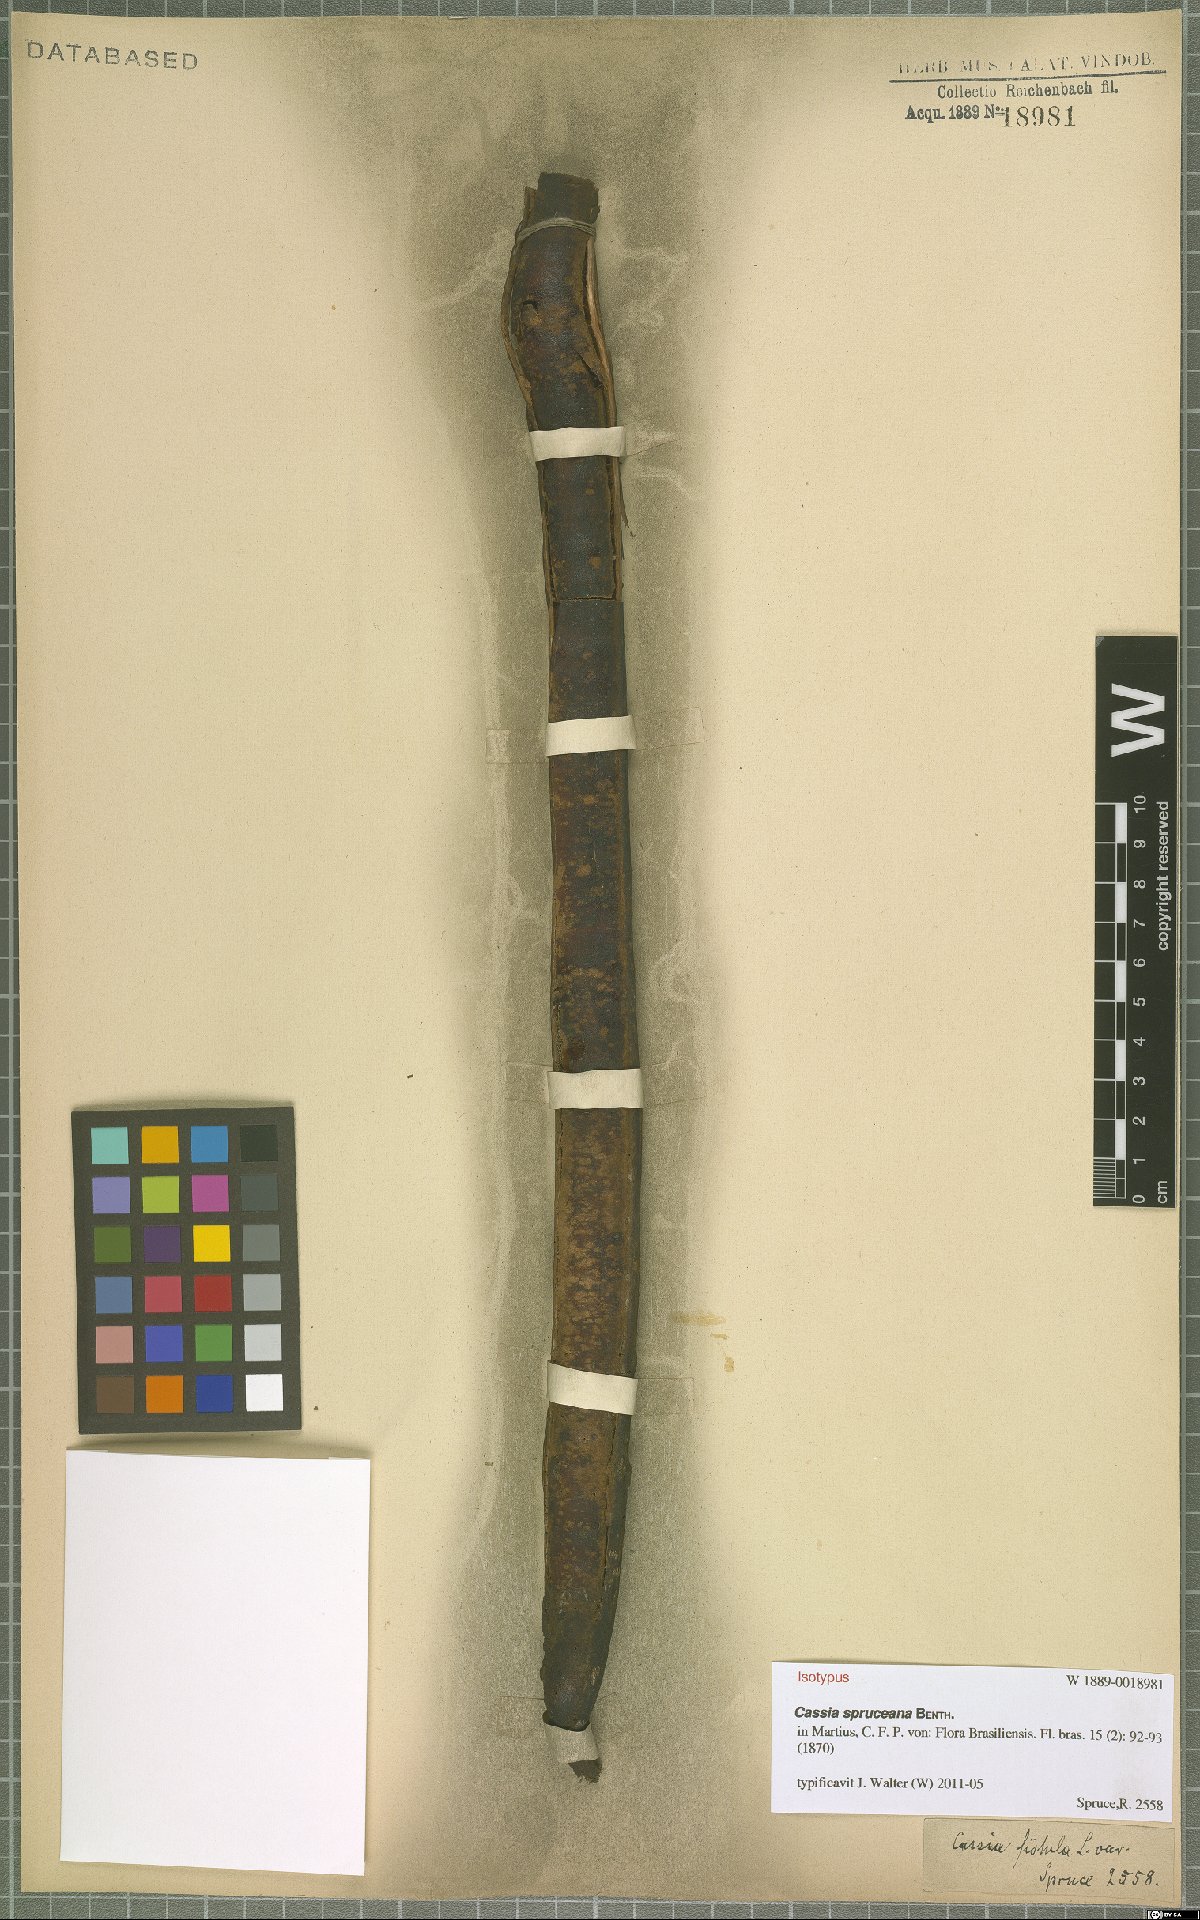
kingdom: Plantae
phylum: Tracheophyta
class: Magnoliopsida
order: Fabales
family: Fabaceae
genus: Cassia
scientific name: Cassia spruceana
